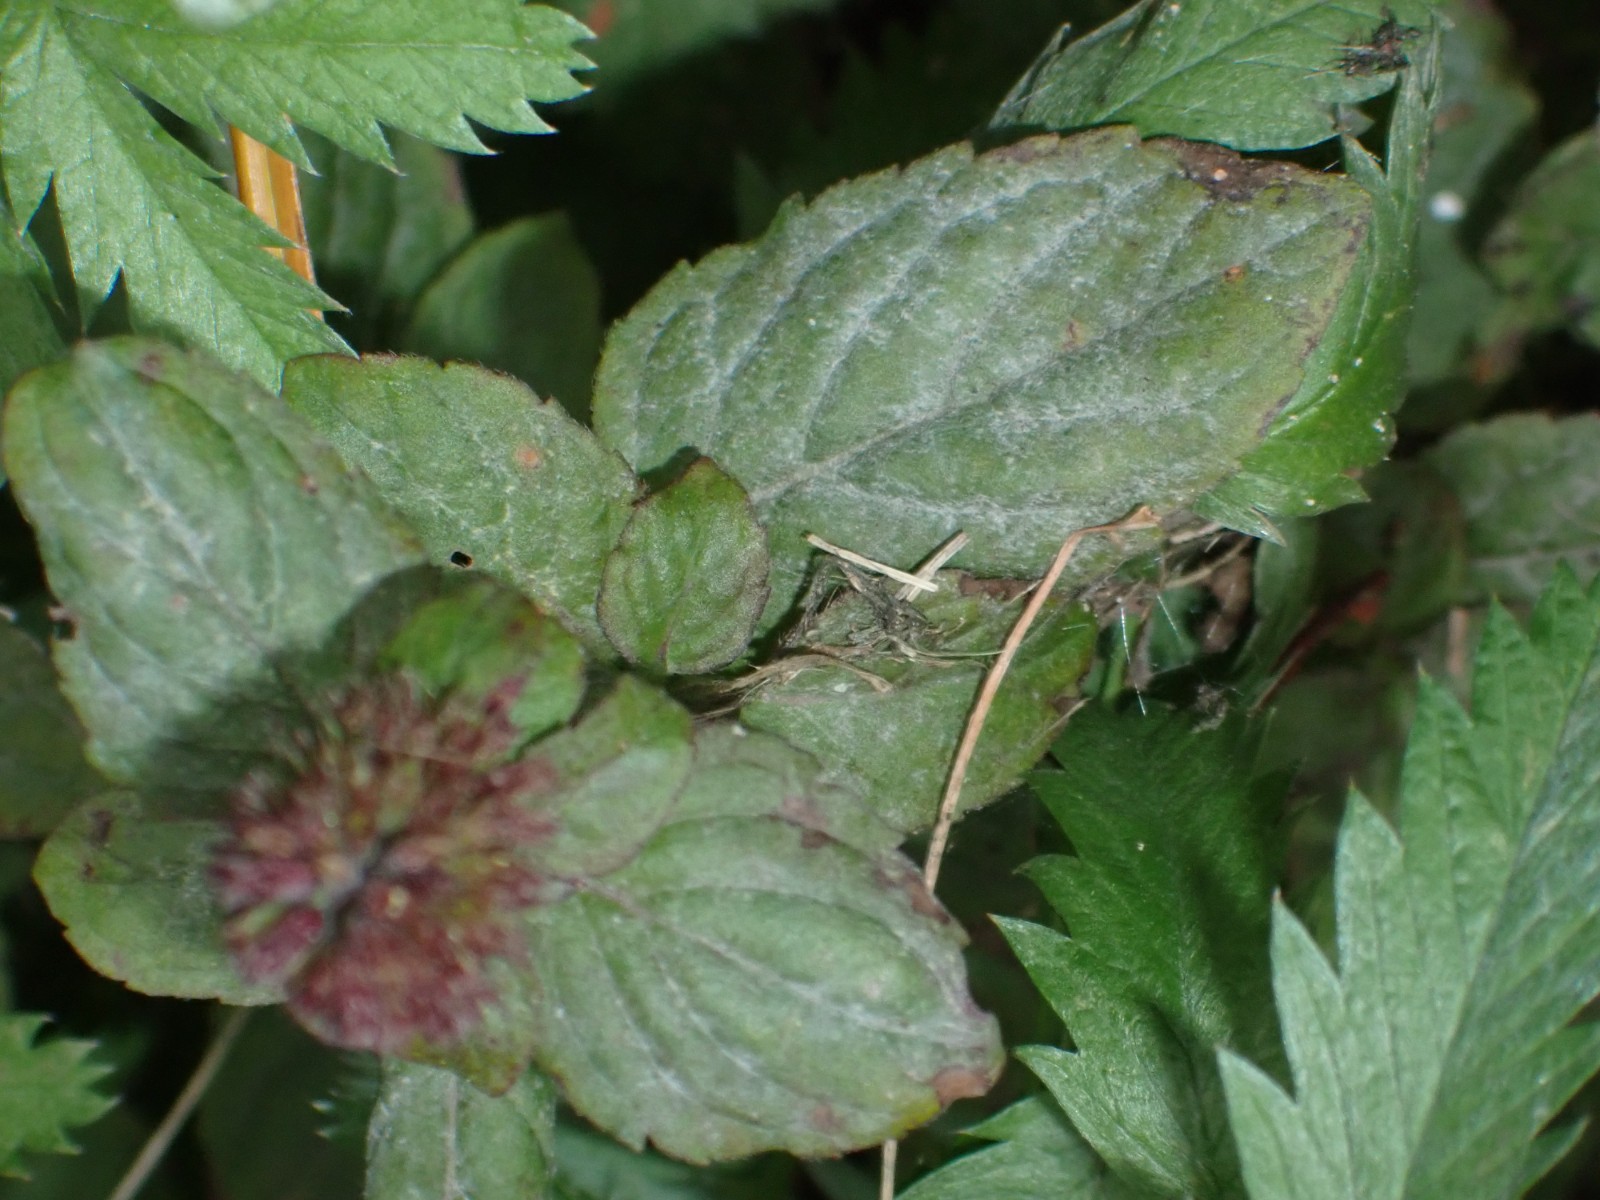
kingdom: Fungi
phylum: Ascomycota
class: Leotiomycetes
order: Helotiales
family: Erysiphaceae
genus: Golovinomyces
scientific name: Golovinomyces monardae
